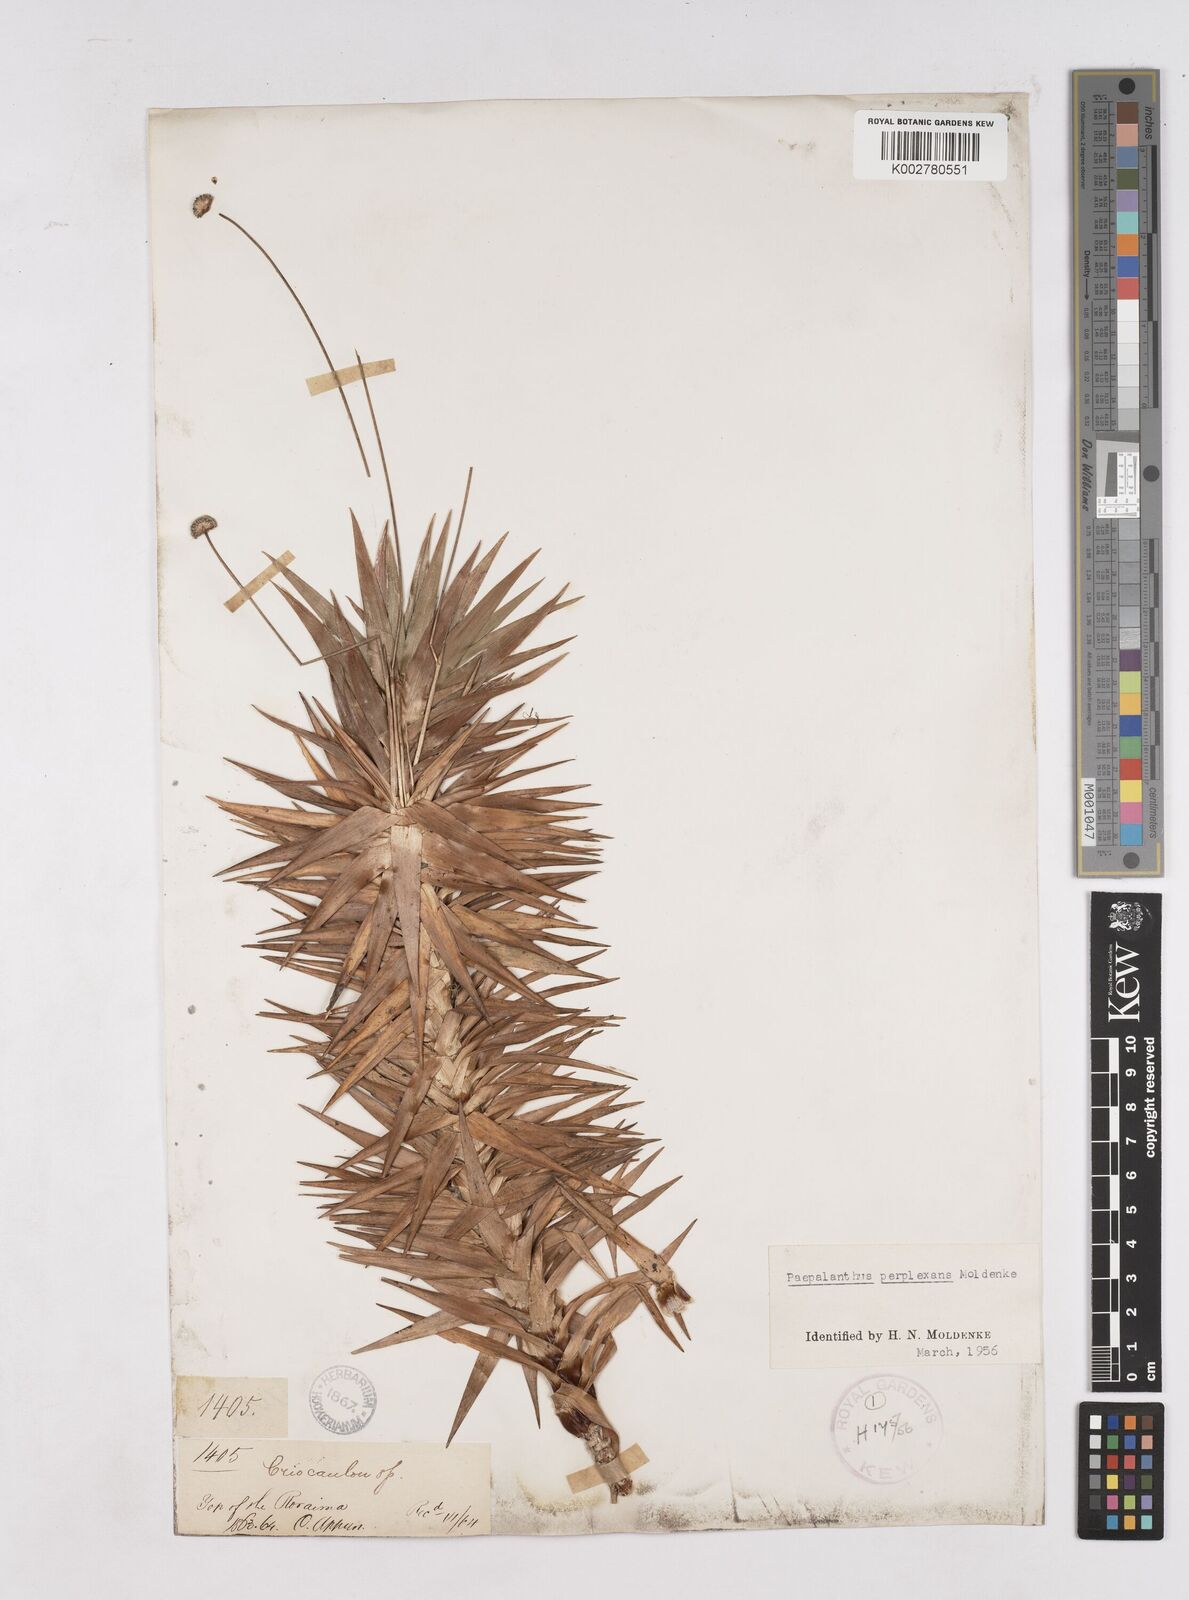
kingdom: Plantae
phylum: Tracheophyta
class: Liliopsida
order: Poales
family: Eriocaulaceae
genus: Paepalanthus
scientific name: Paepalanthus schomburgkii
